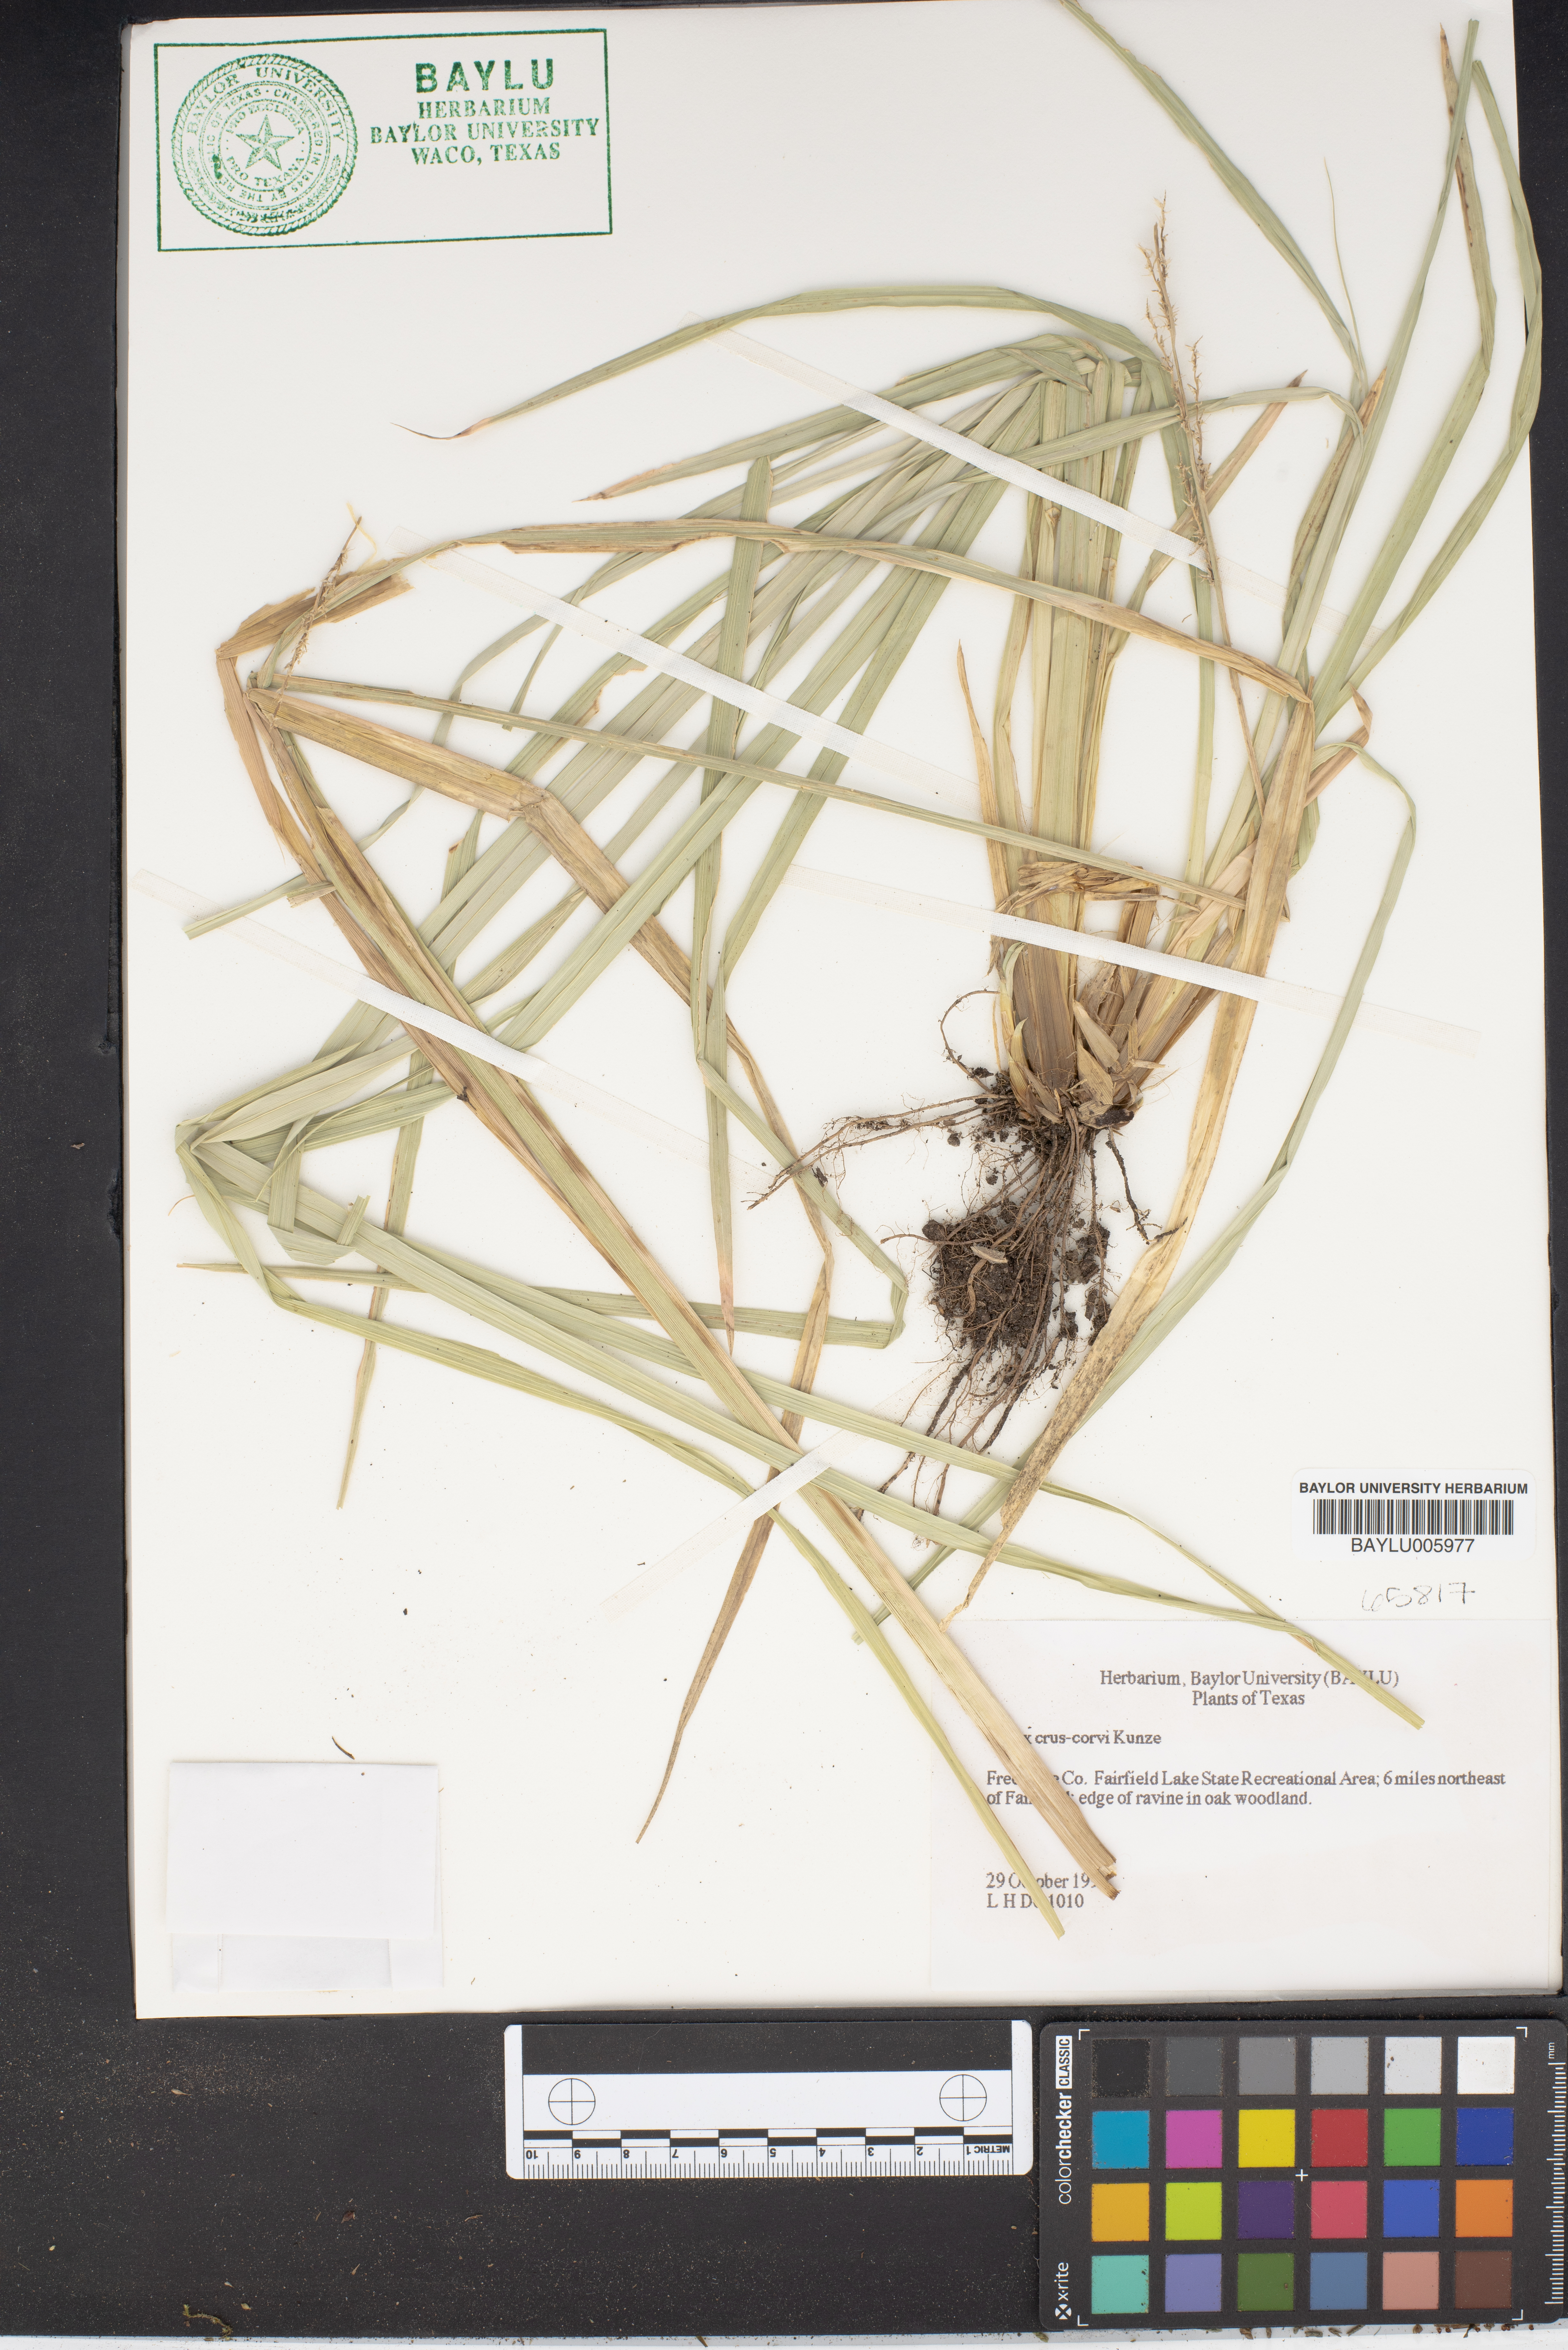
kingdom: Plantae
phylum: Tracheophyta
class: Liliopsida
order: Poales
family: Cyperaceae
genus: Carex
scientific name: Carex crus-corvi
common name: Crow-spur sedge
